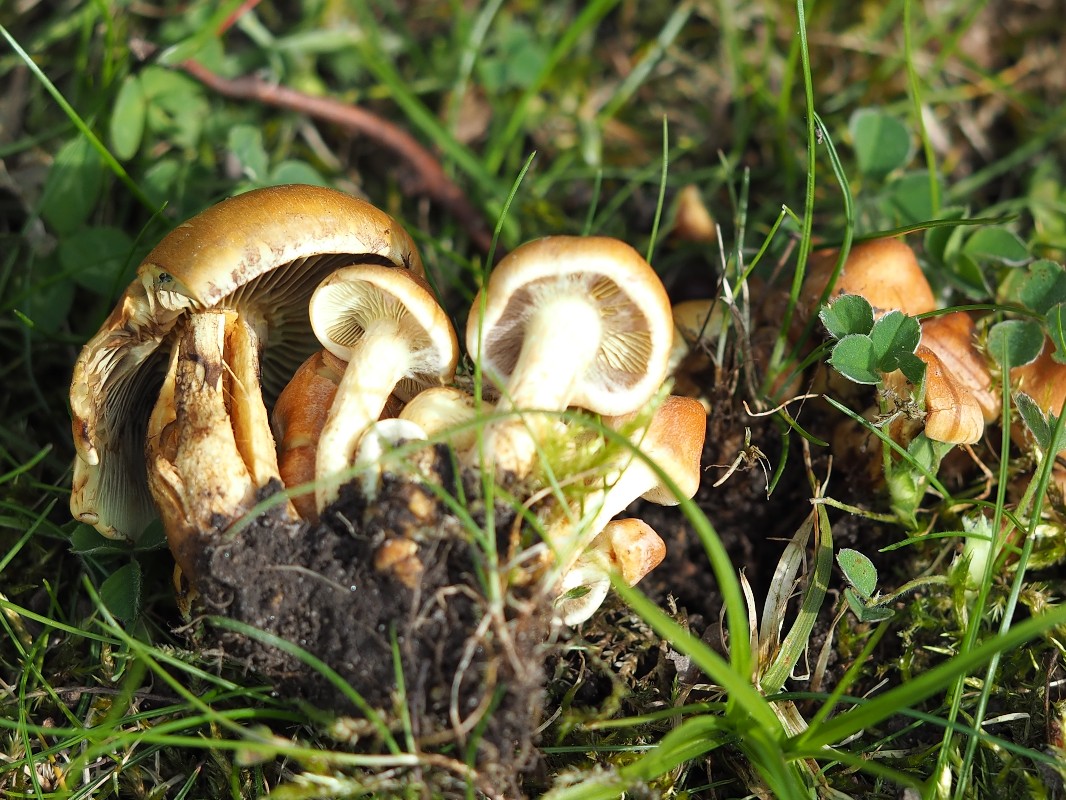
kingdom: Fungi
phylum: Basidiomycota
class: Agaricomycetes
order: Agaricales
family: Strophariaceae
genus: Hypholoma
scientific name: Hypholoma fasciculare
